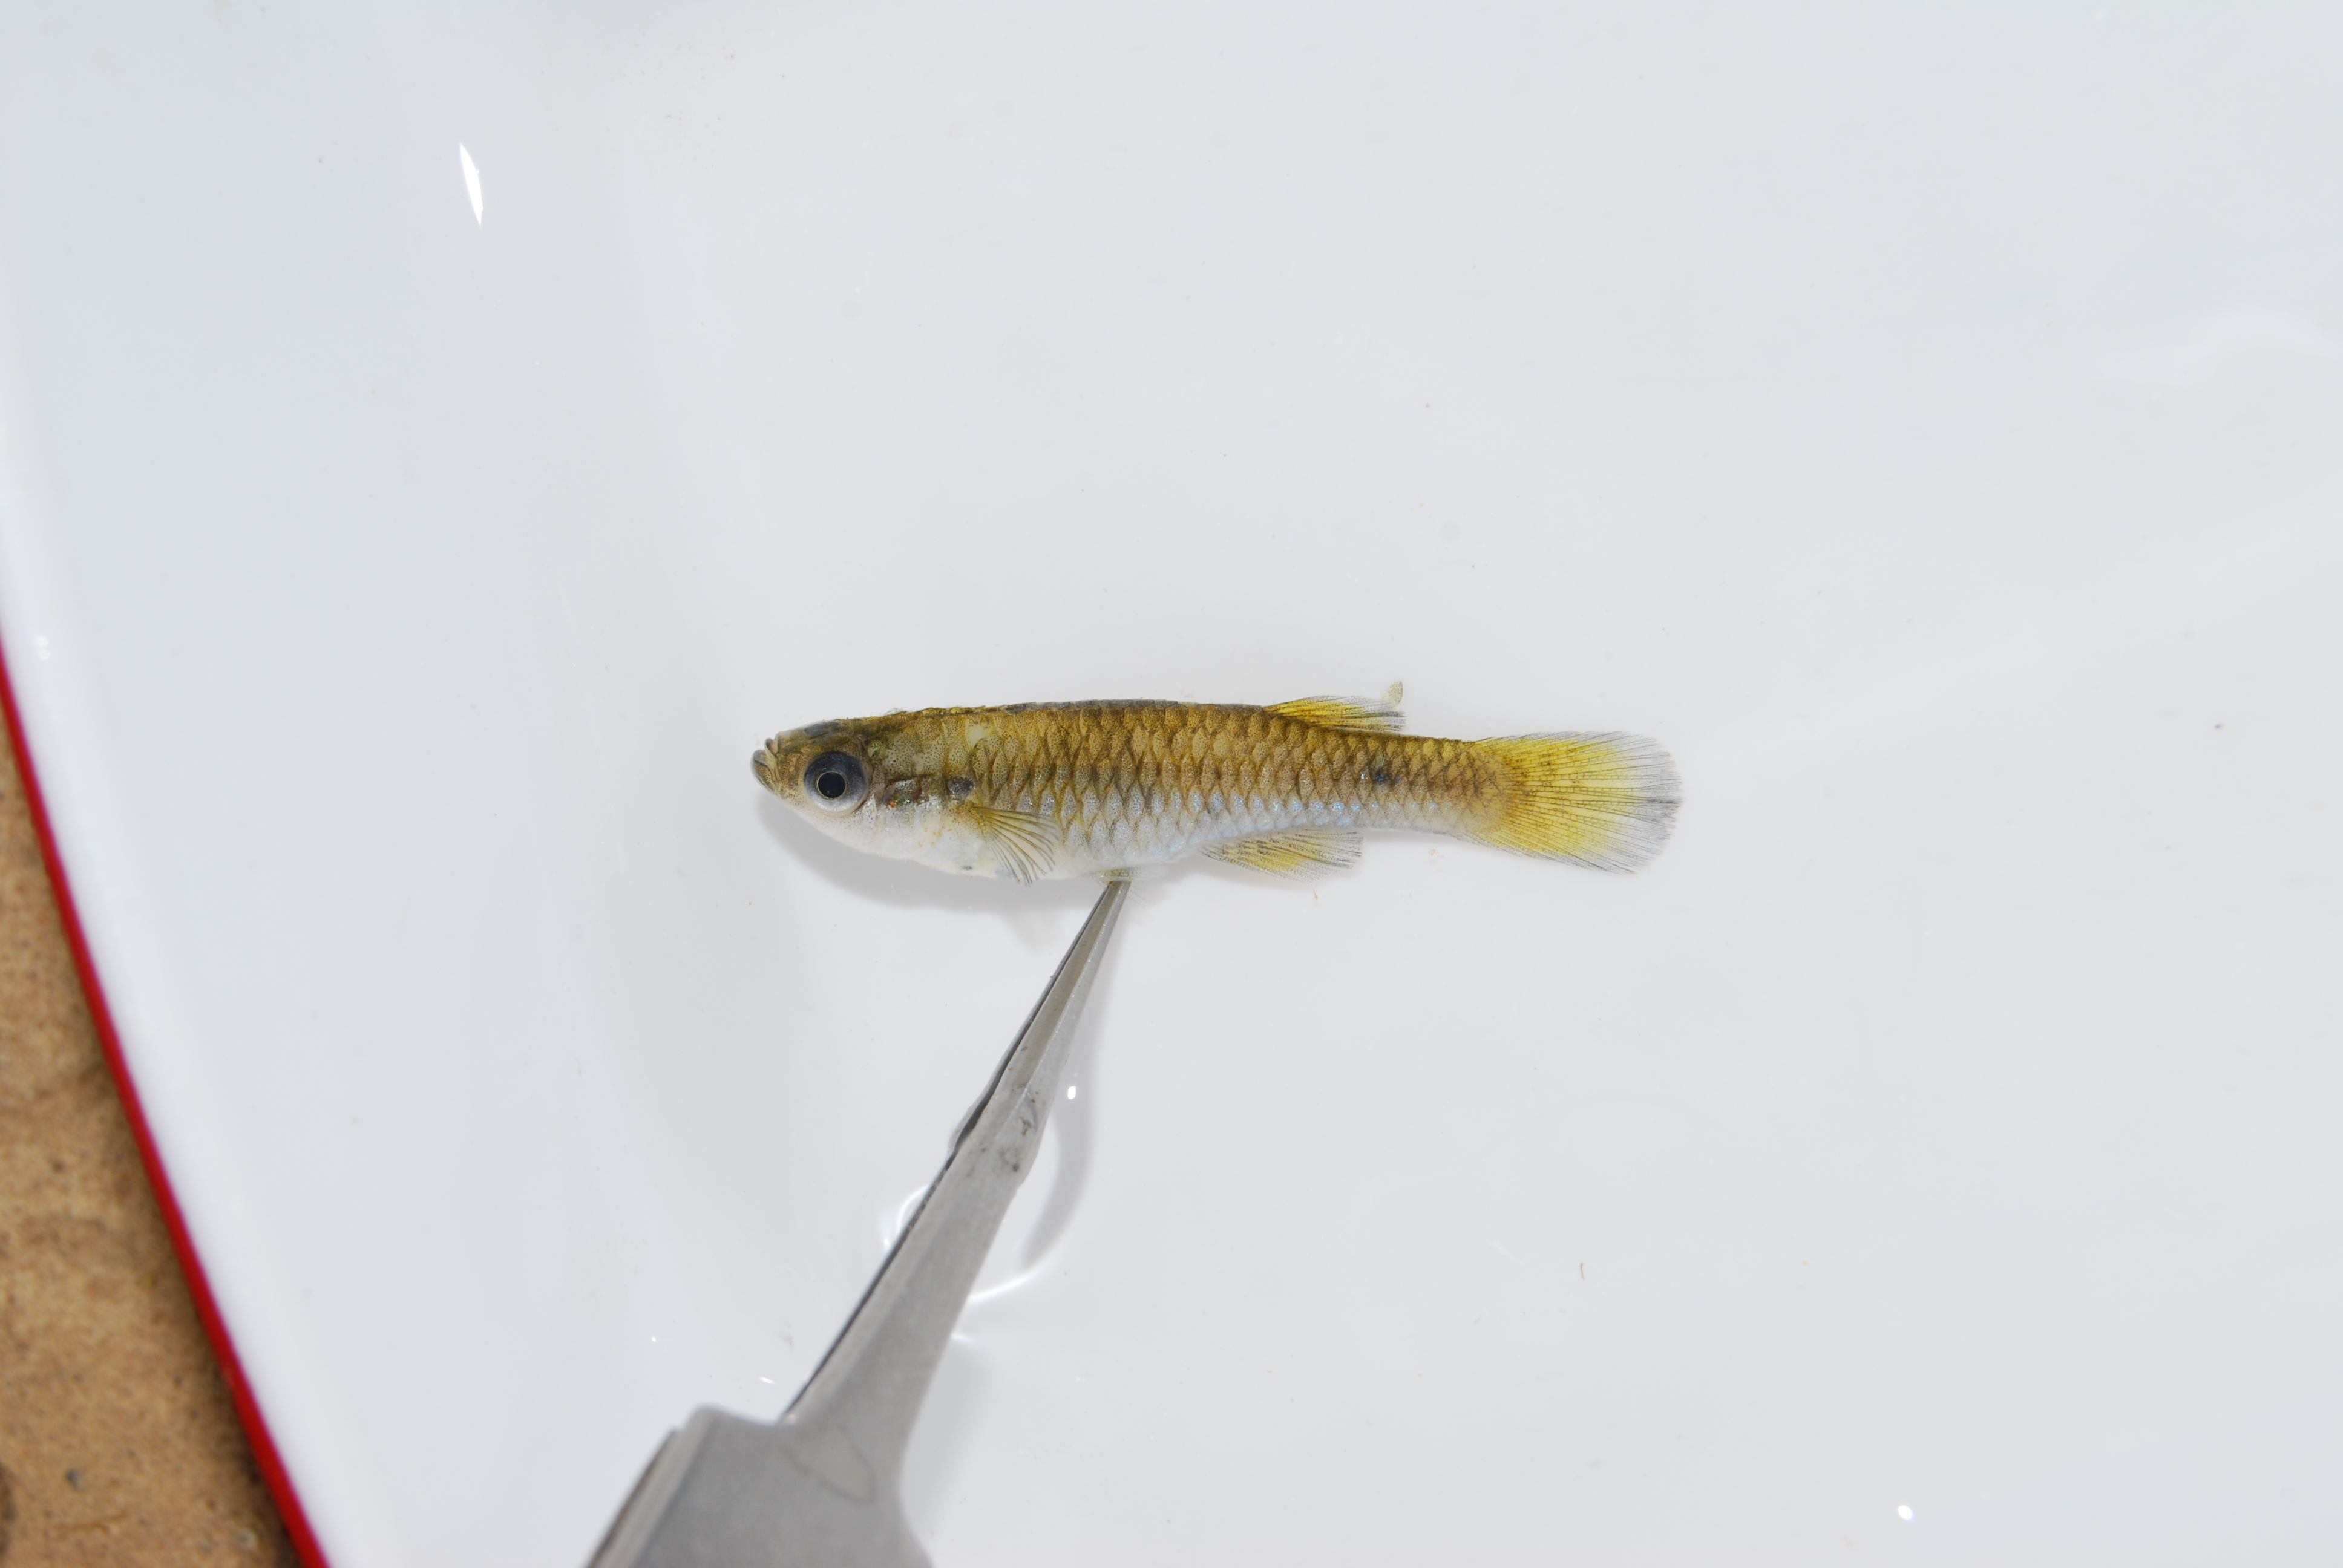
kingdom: Animalia
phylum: Chordata
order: Cyprinodontiformes
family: Poeciliidae
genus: Micropanchax
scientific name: Micropanchax hutereaui
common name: Meshscaled topminnow
